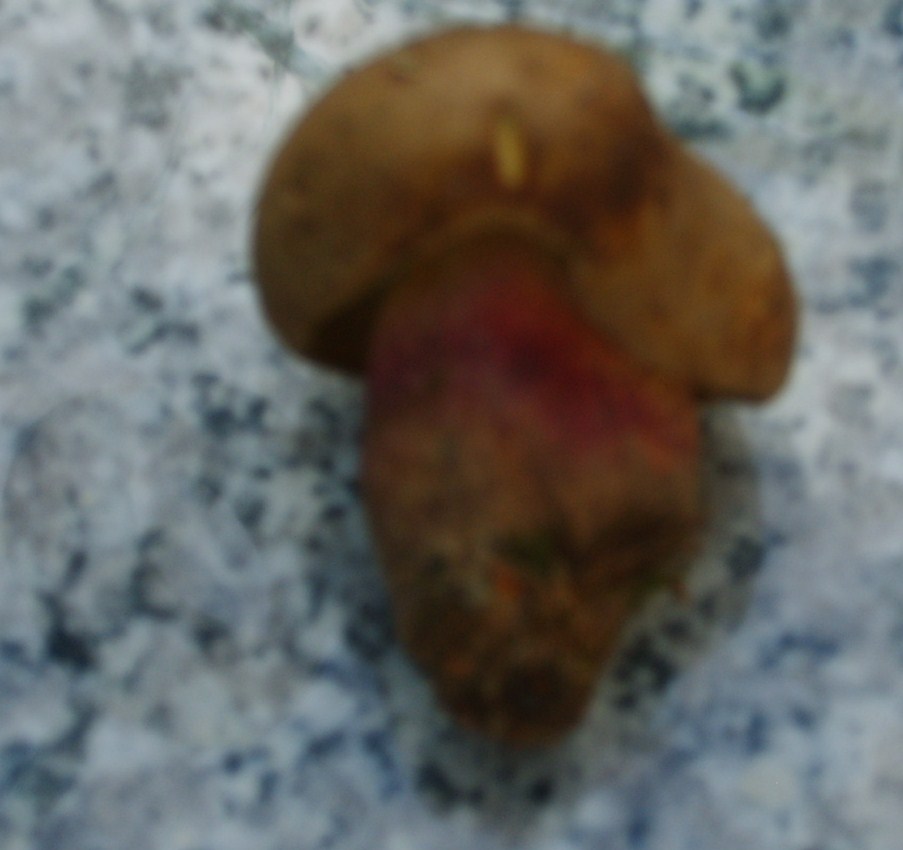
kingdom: Fungi
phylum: Basidiomycota
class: Agaricomycetes
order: Boletales
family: Boletaceae
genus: Caloboletus
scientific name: Caloboletus calopus
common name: skønfodet rørhat
